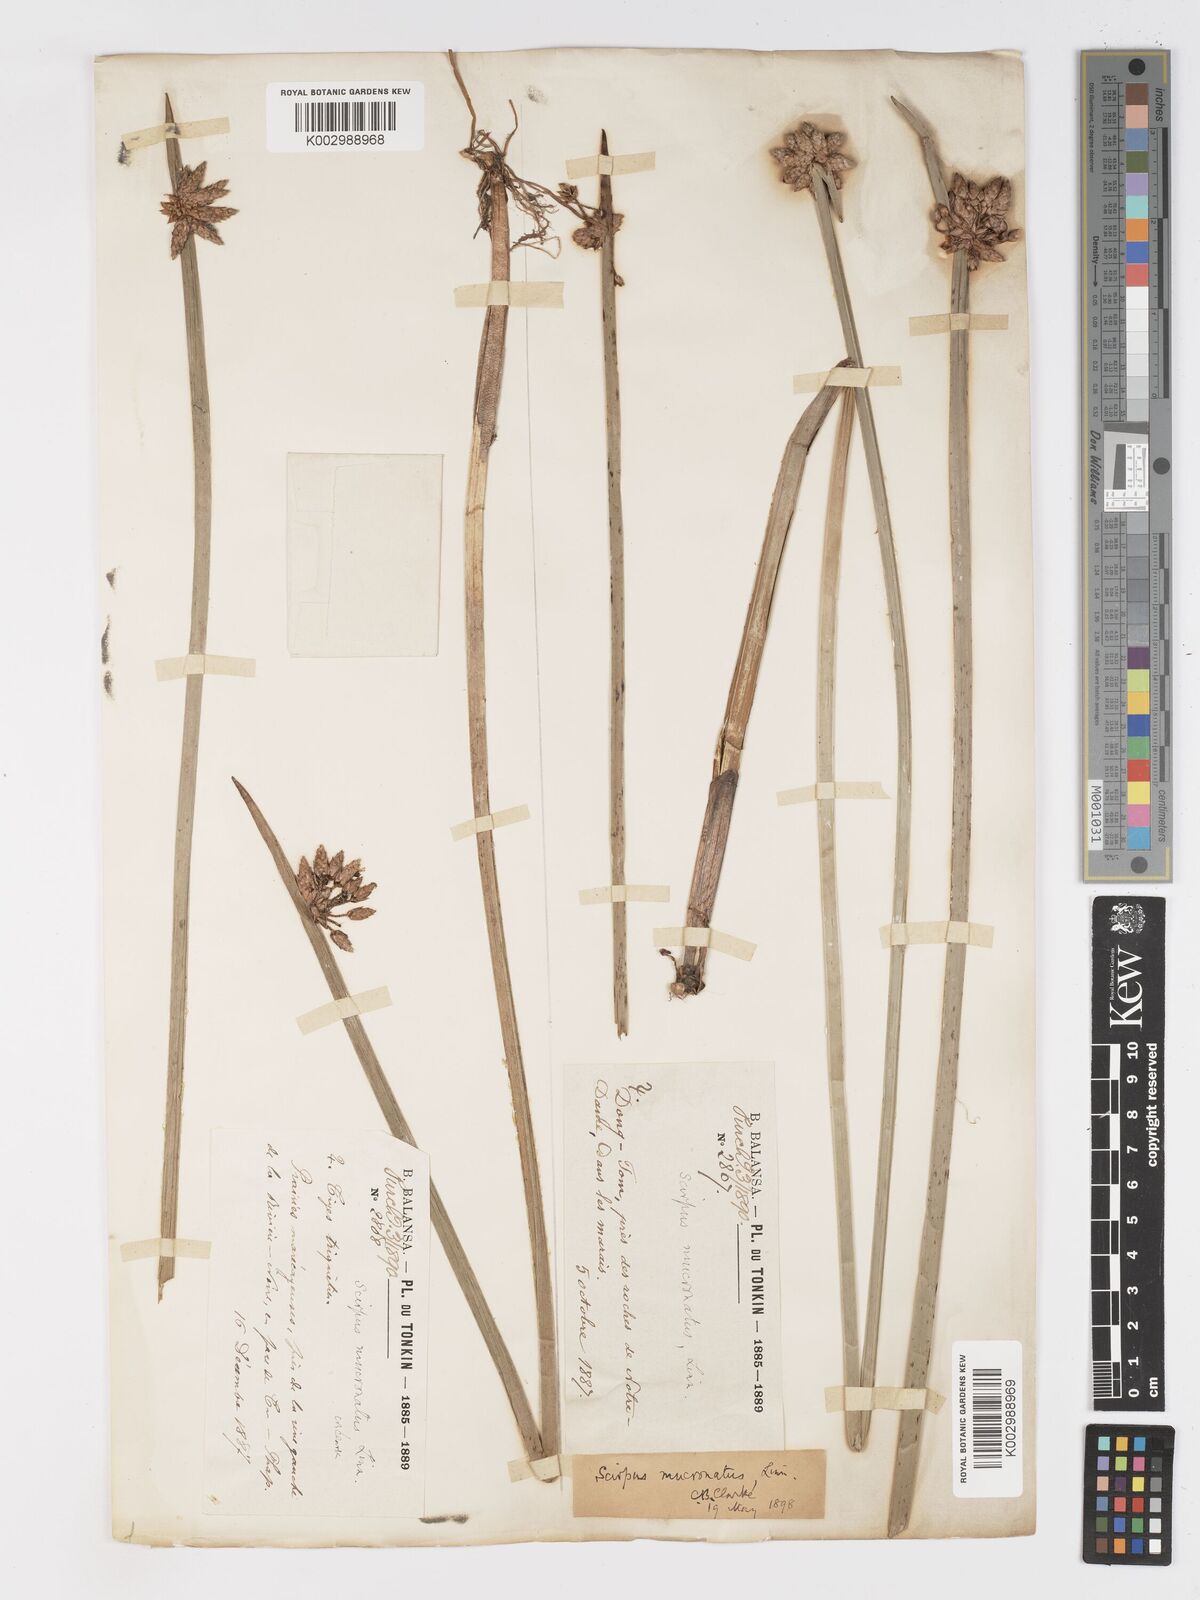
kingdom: Plantae
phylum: Tracheophyta
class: Liliopsida
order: Poales
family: Cyperaceae
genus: Schoenoplectiella
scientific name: Schoenoplectiella mucronata
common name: Bog bulrush
